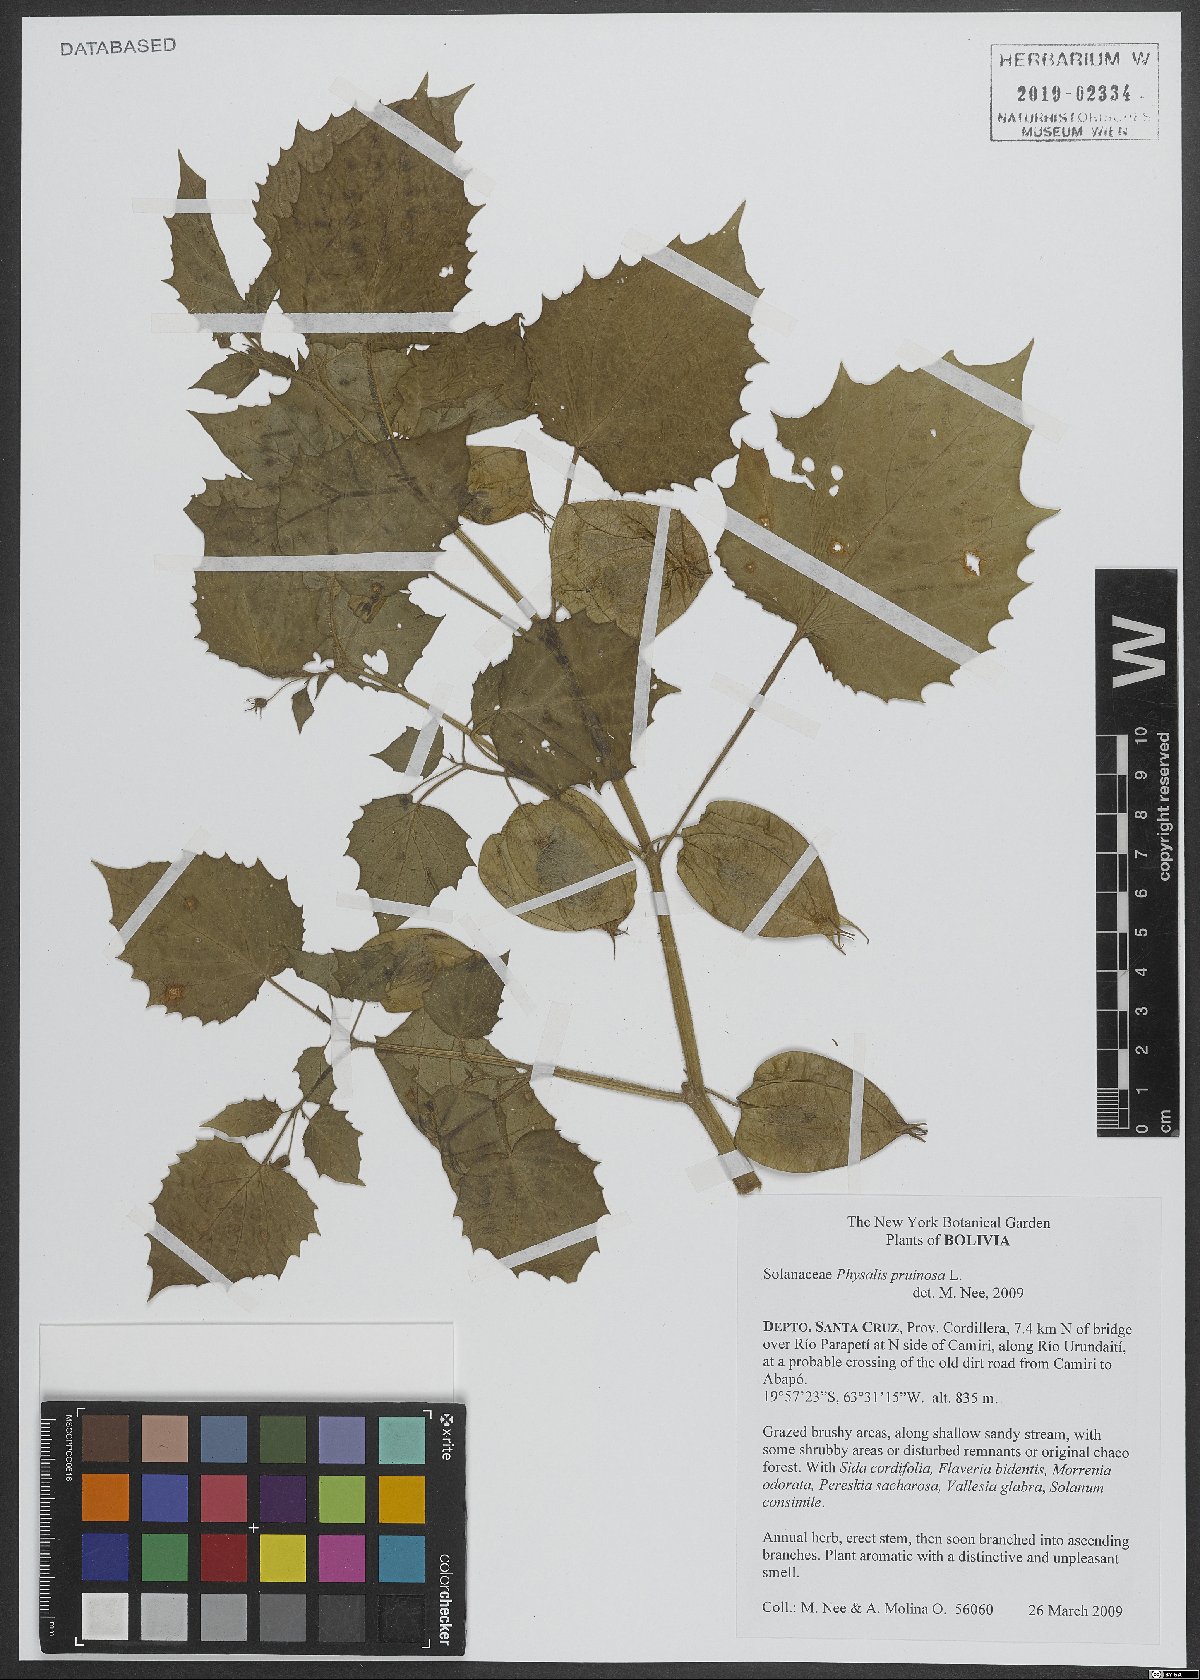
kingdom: Plantae
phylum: Tracheophyta
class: Magnoliopsida
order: Solanales
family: Solanaceae
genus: Physalis
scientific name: Physalis pruinosa
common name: Strawberry tomato
